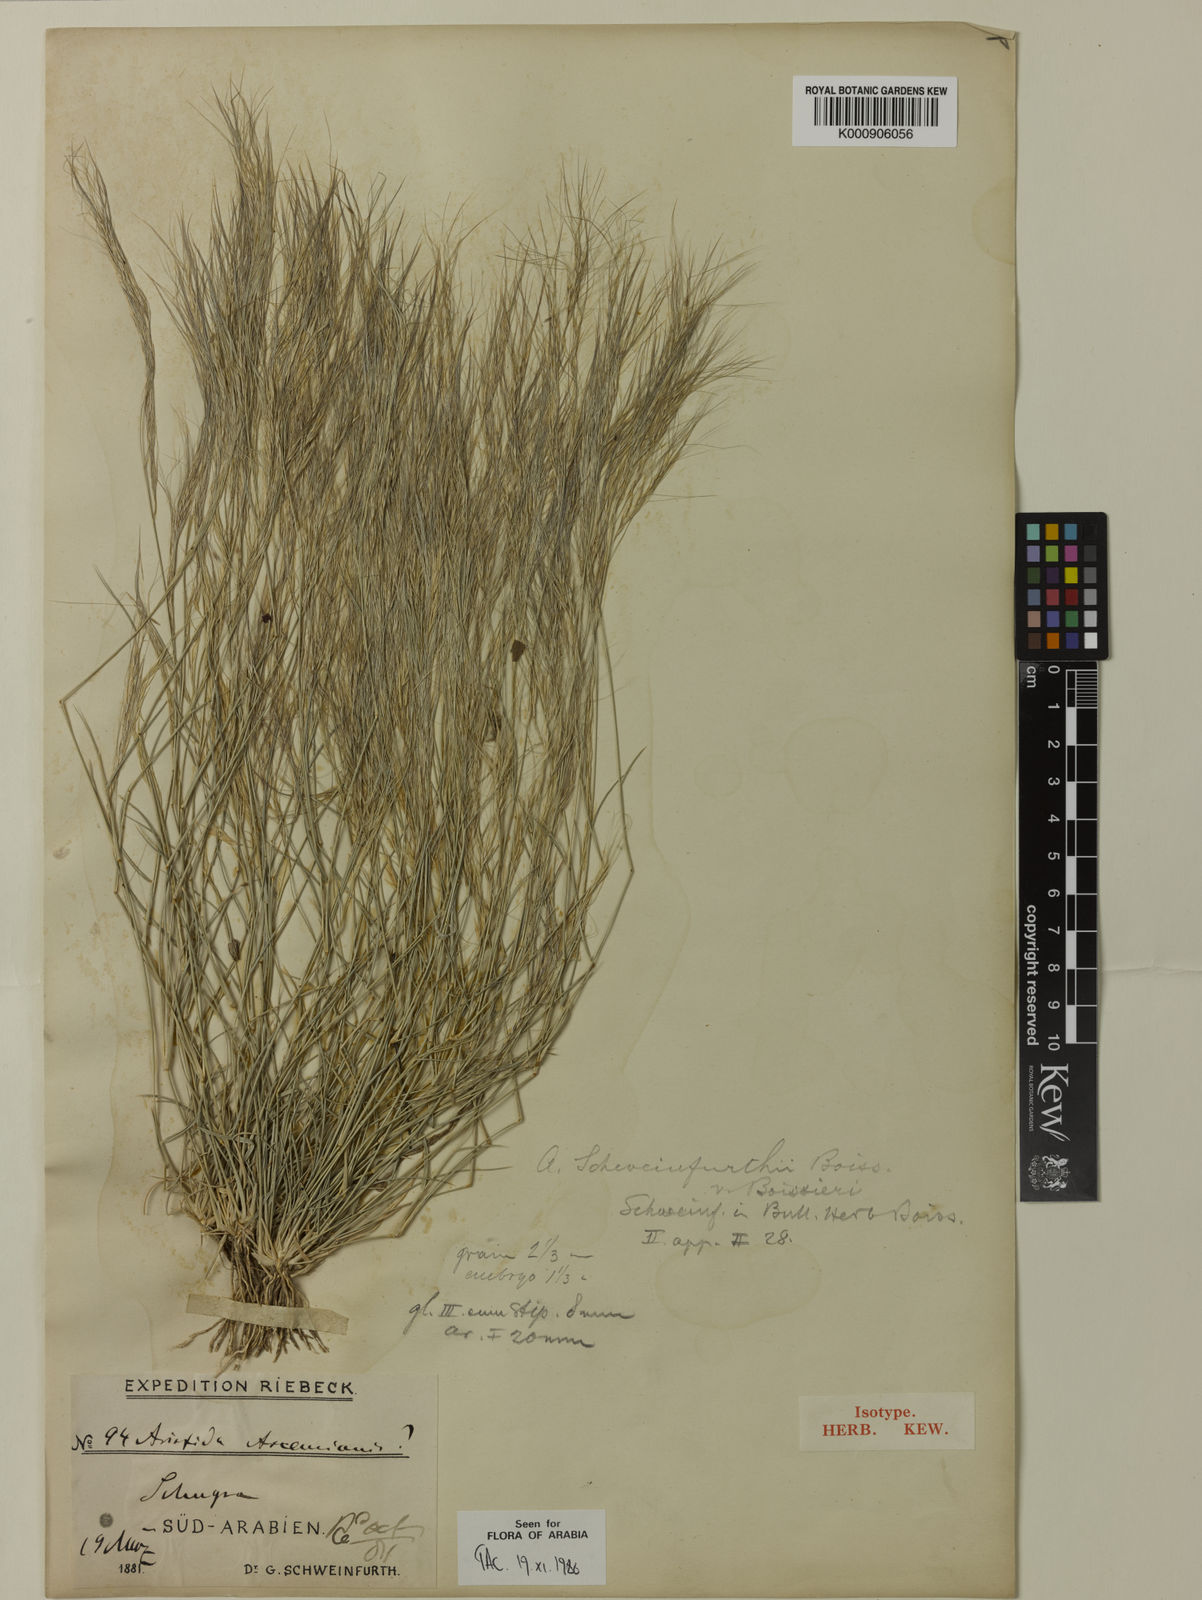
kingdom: Plantae
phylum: Tracheophyta
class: Liliopsida
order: Poales
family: Poaceae
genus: Aristida
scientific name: Aristida mutabilis
